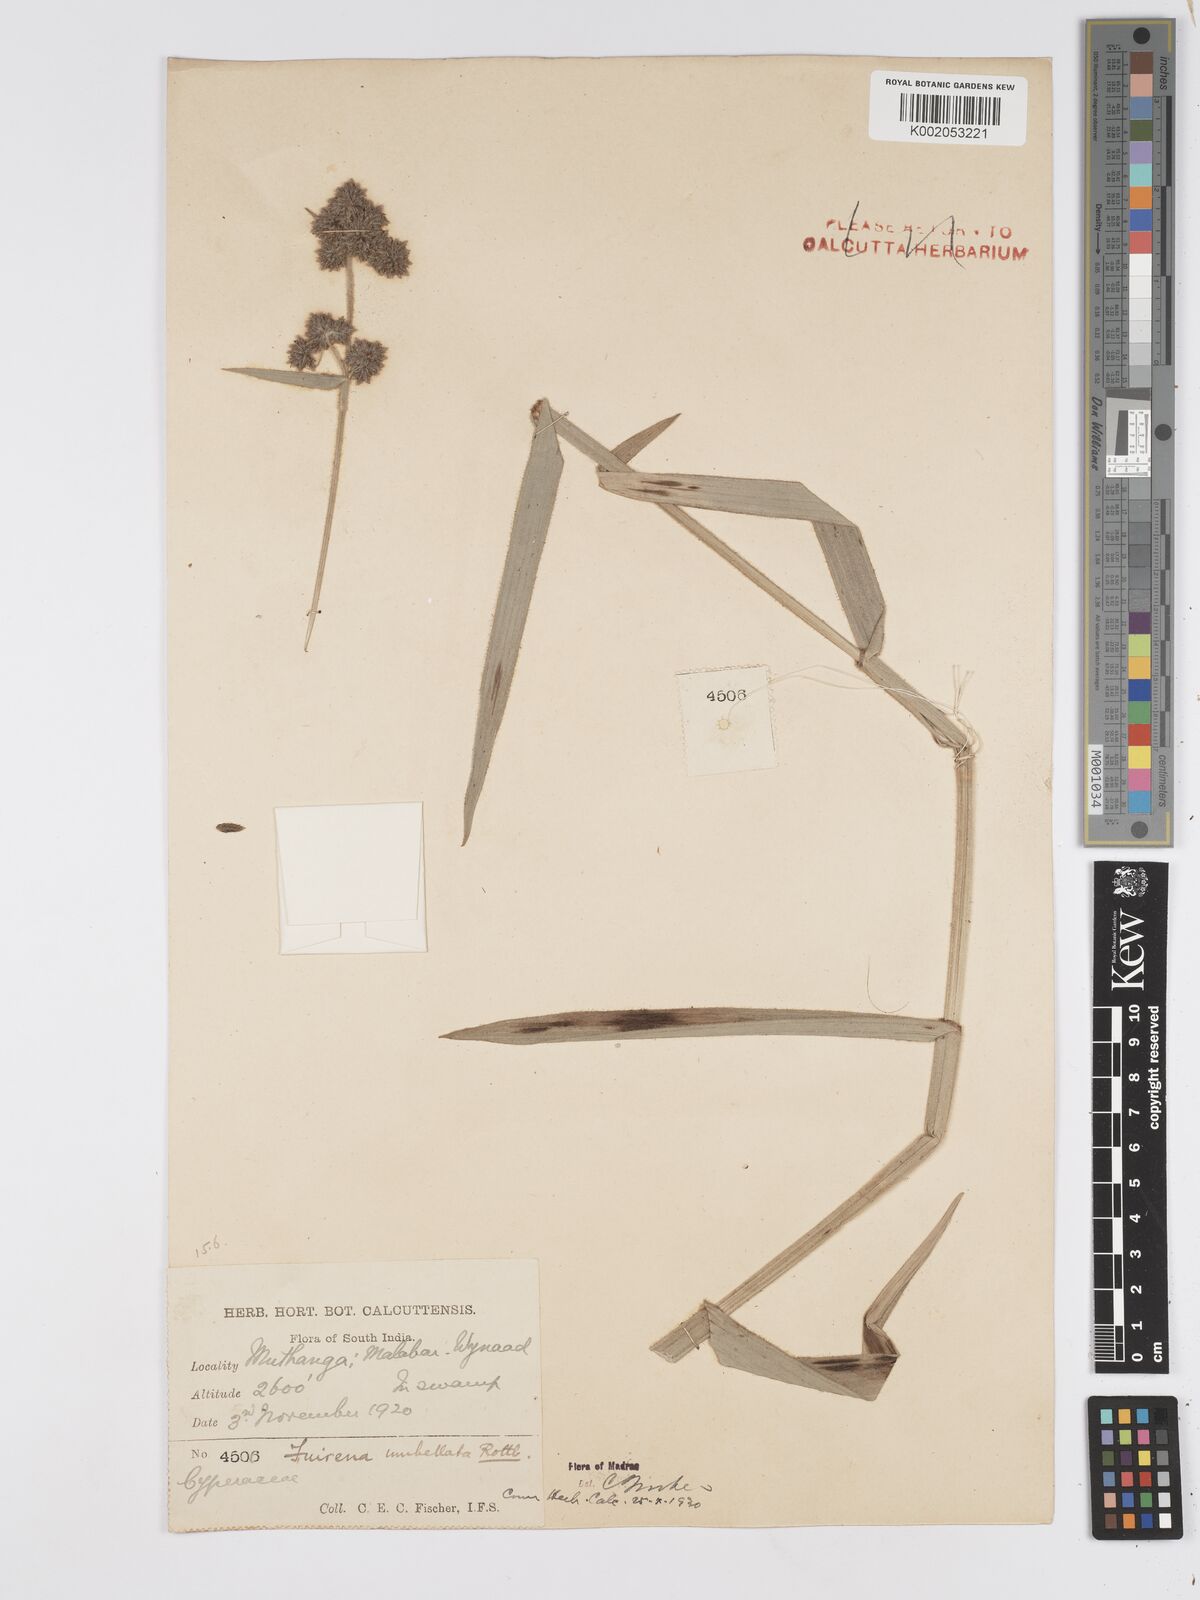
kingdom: Plantae
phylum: Tracheophyta
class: Liliopsida
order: Poales
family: Cyperaceae
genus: Fuirena
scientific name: Fuirena umbellata
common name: Yefen
